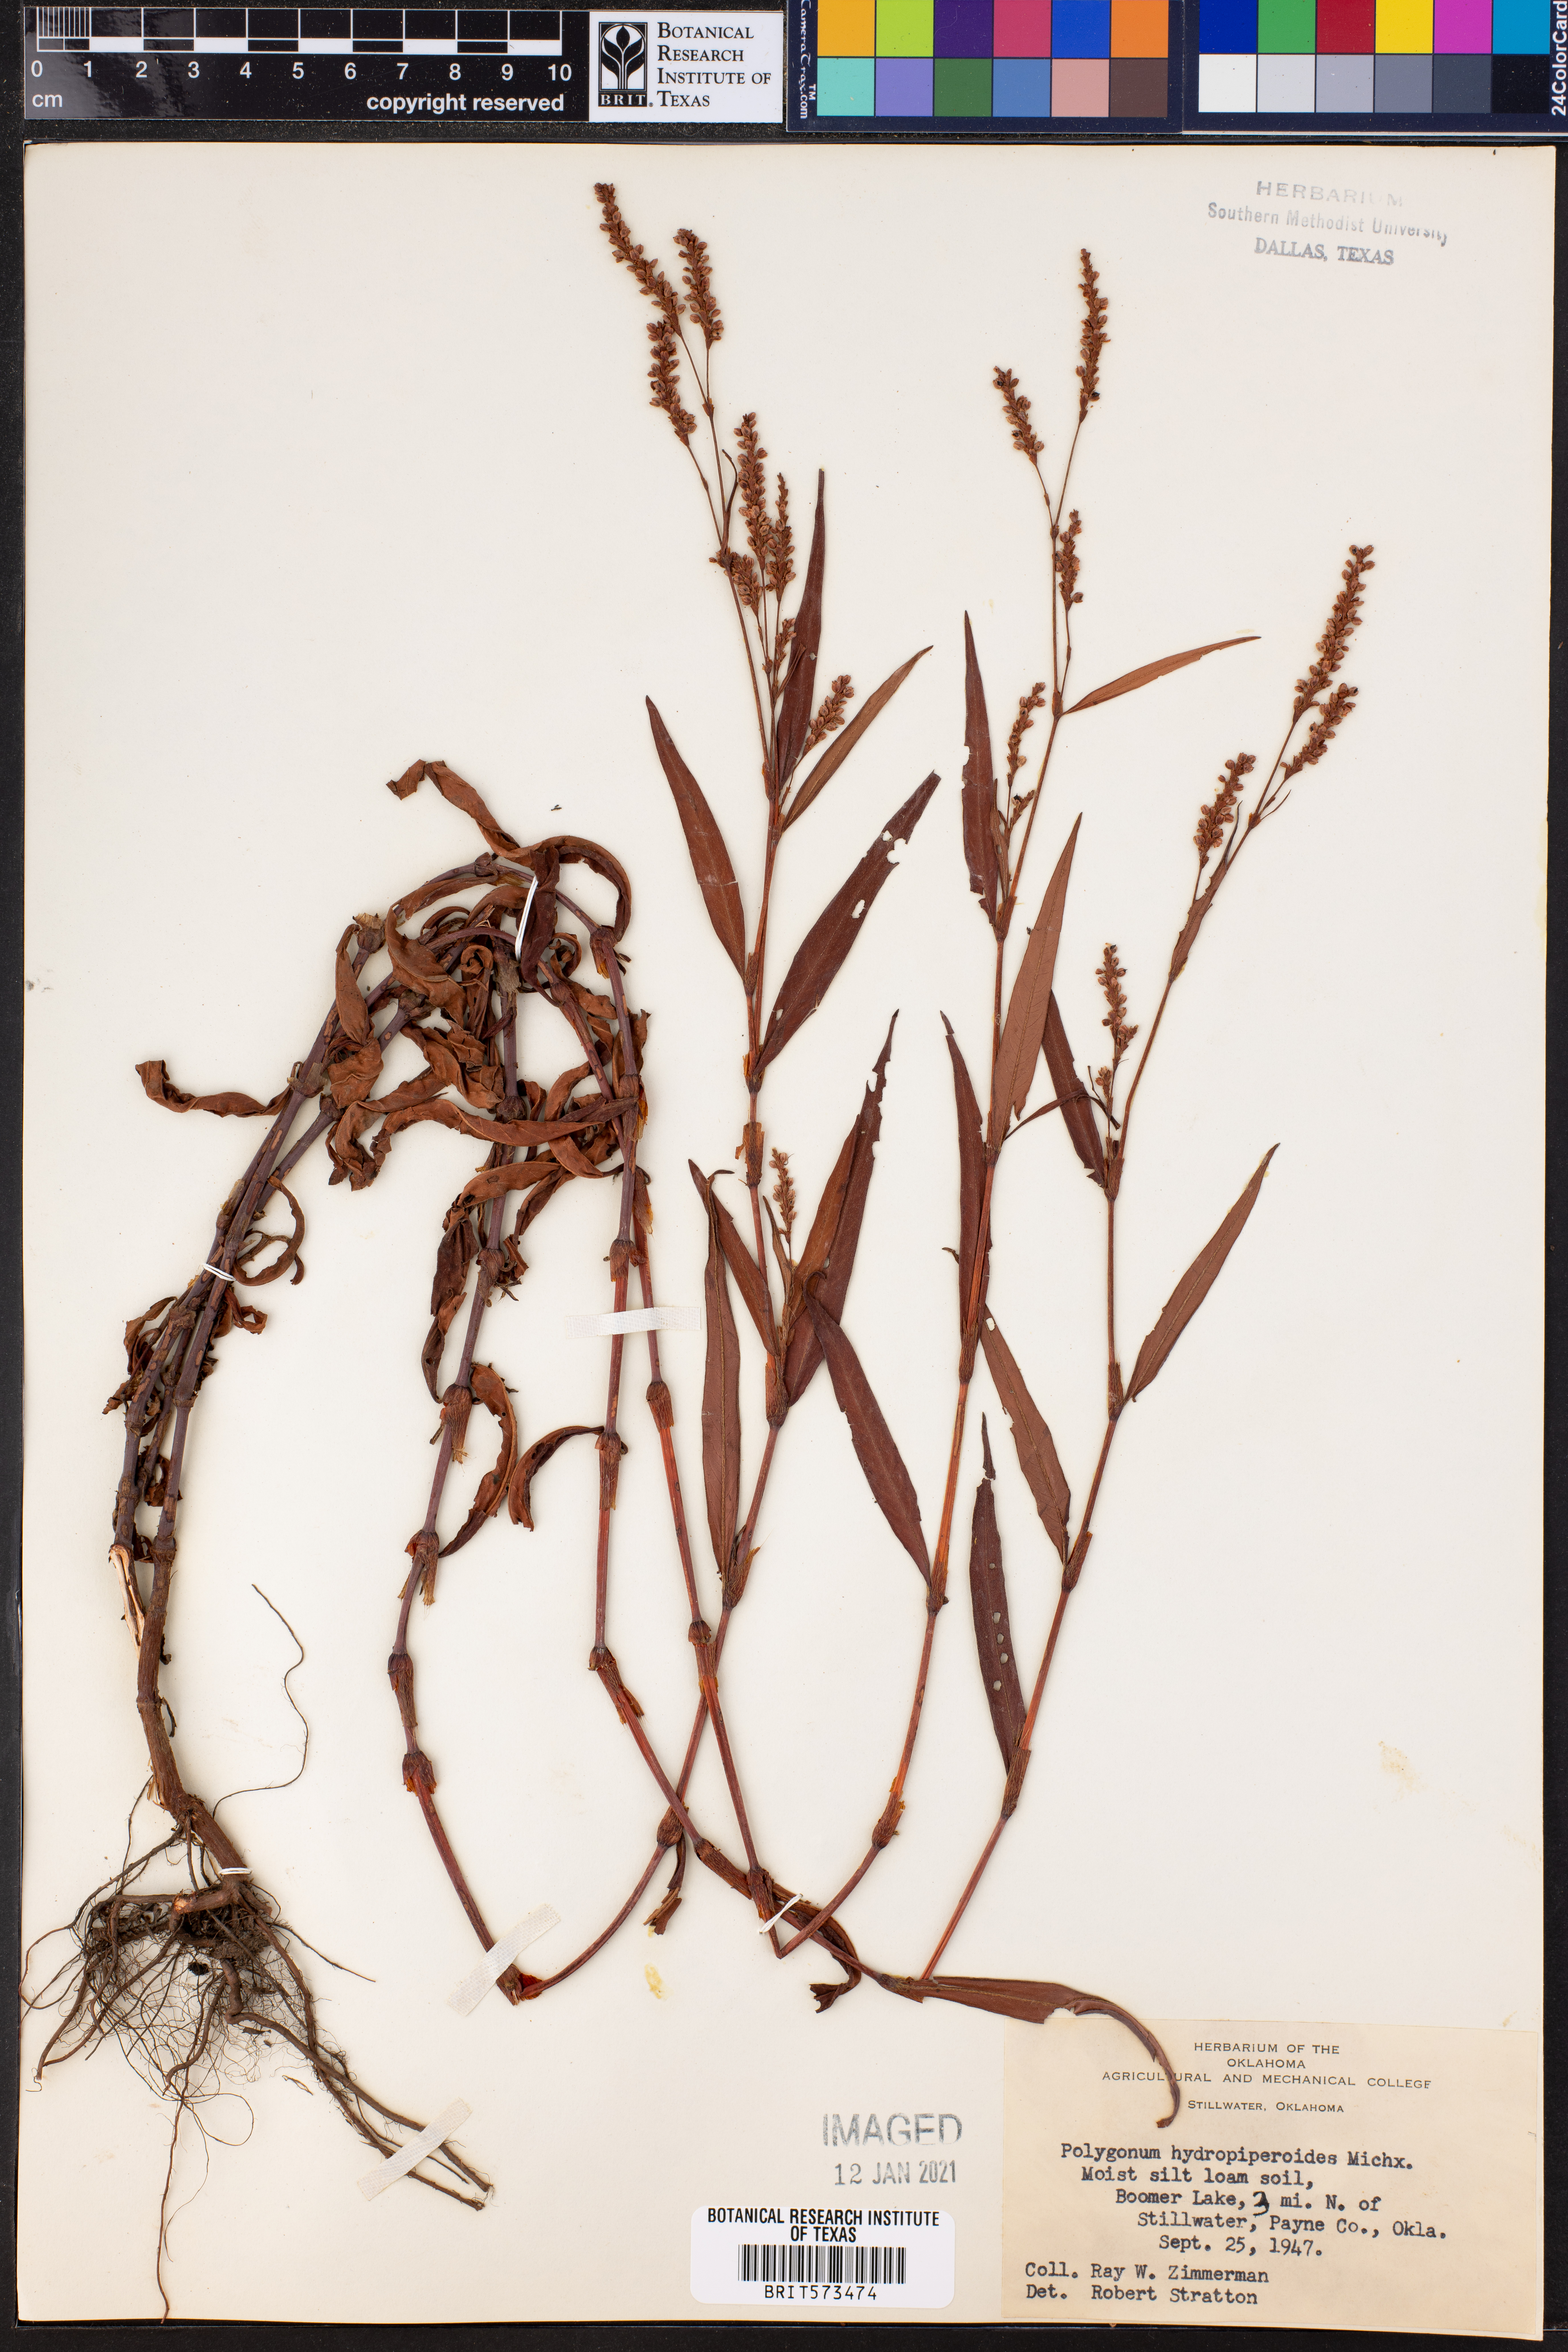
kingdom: Plantae
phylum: Tracheophyta
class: Magnoliopsida
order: Caryophyllales
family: Polygonaceae
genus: Persicaria
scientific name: Persicaria hydropiperoides
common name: Swamp smartweed
